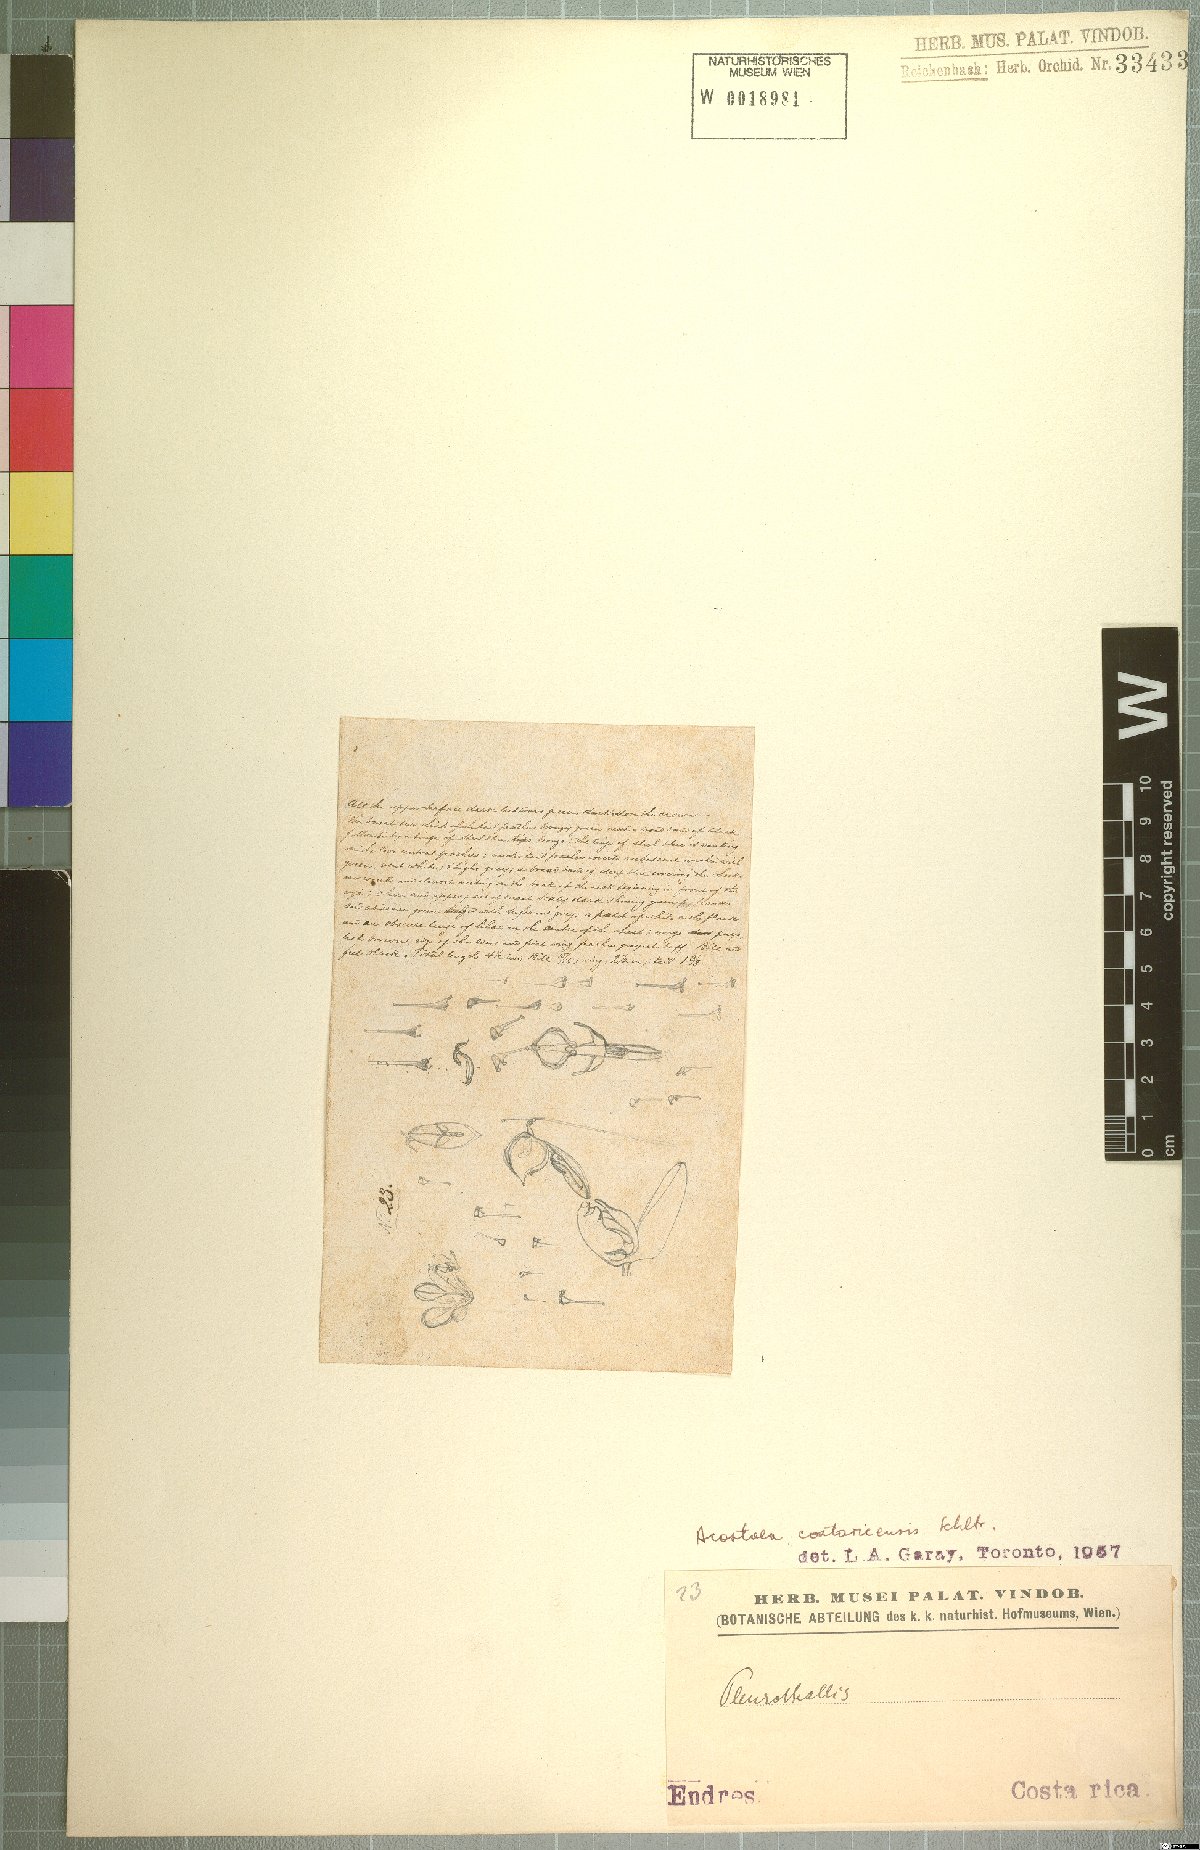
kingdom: Plantae
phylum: Tracheophyta
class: Liliopsida
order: Asparagales
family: Orchidaceae
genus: Specklinia
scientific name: Specklinia colombiana
